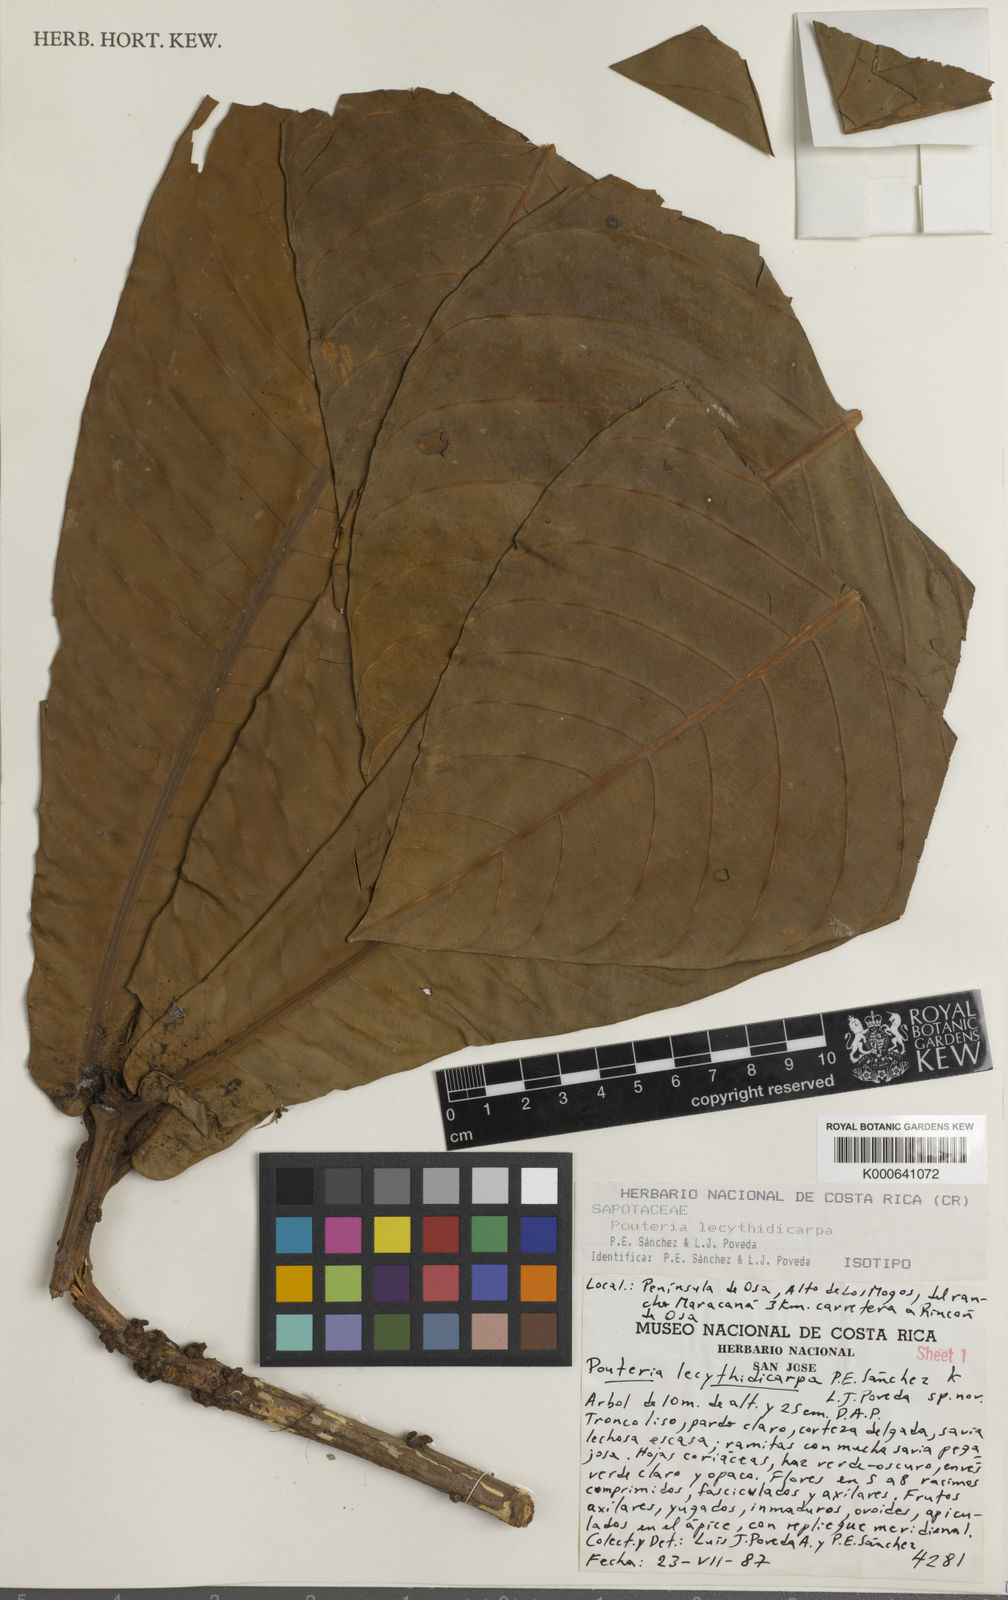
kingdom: Plantae
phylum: Tracheophyta
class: Magnoliopsida
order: Ericales
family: Sapotaceae
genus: Pouteria
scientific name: Pouteria
